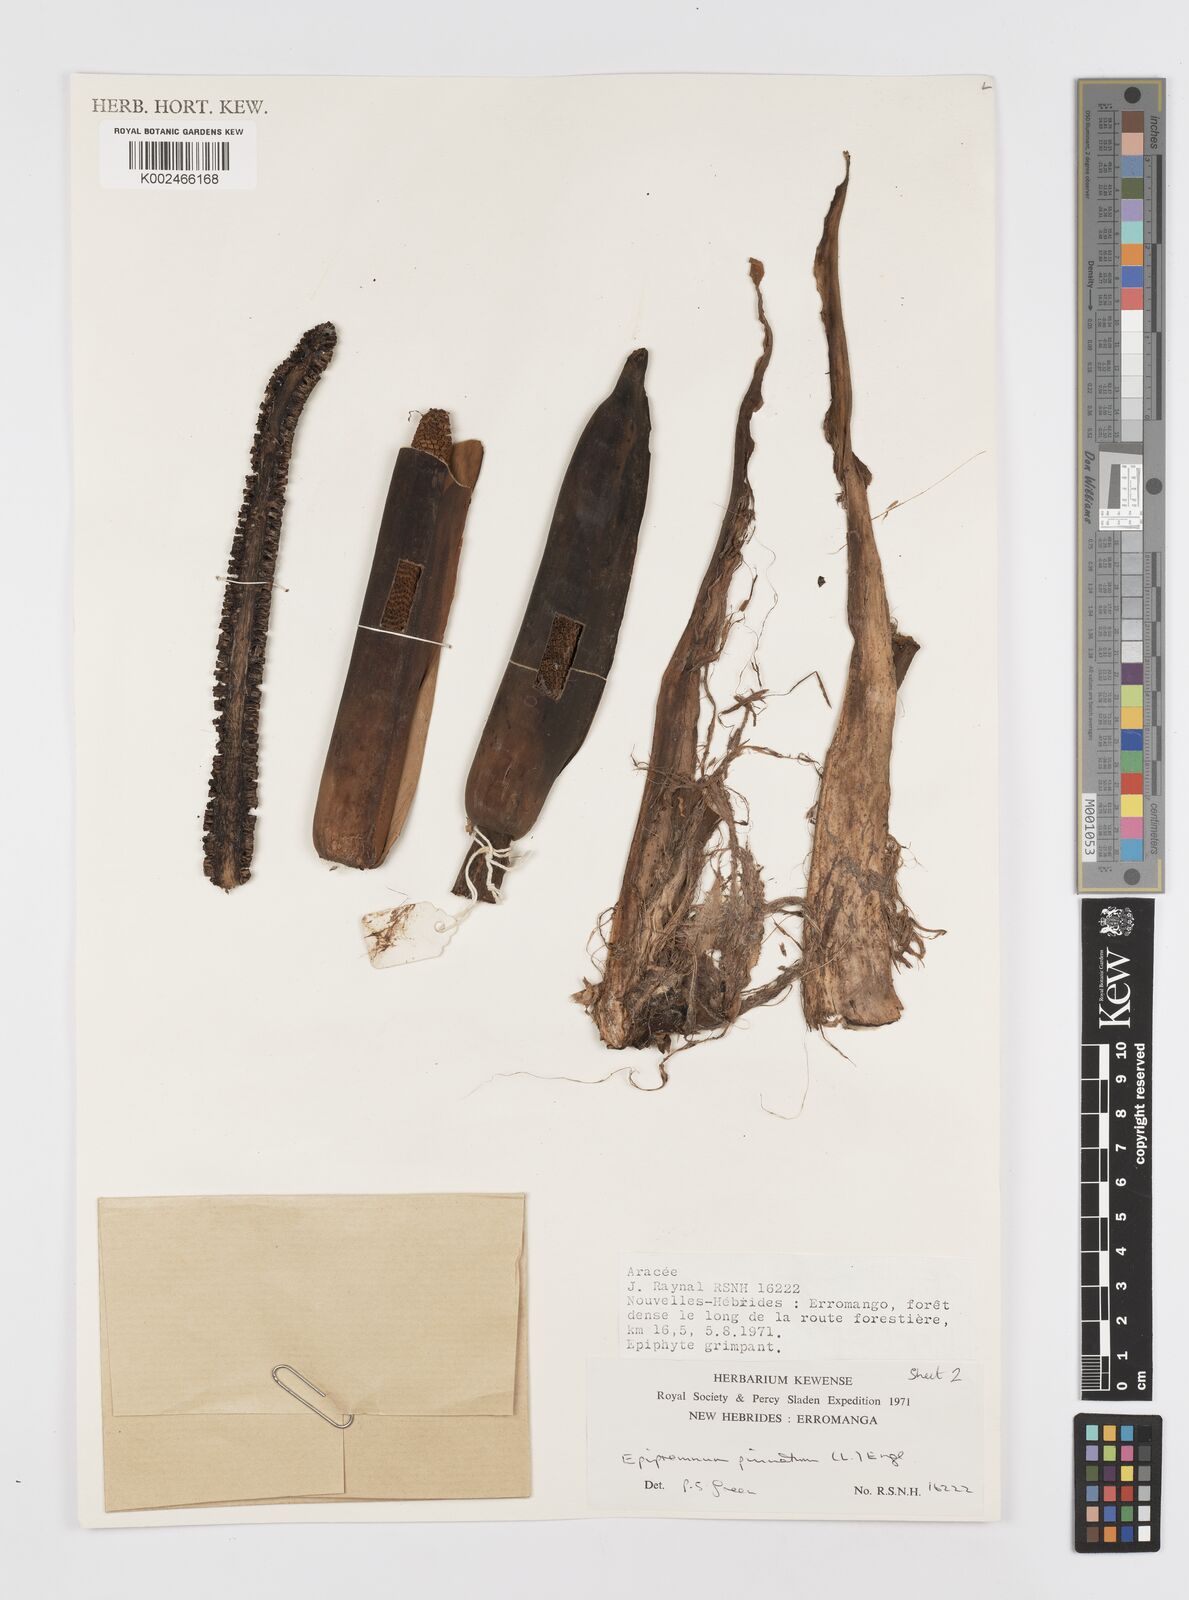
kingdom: Plantae
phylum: Tracheophyta
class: Liliopsida
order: Alismatales
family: Araceae
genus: Rhaphidophora
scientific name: Rhaphidophora korthalsii
